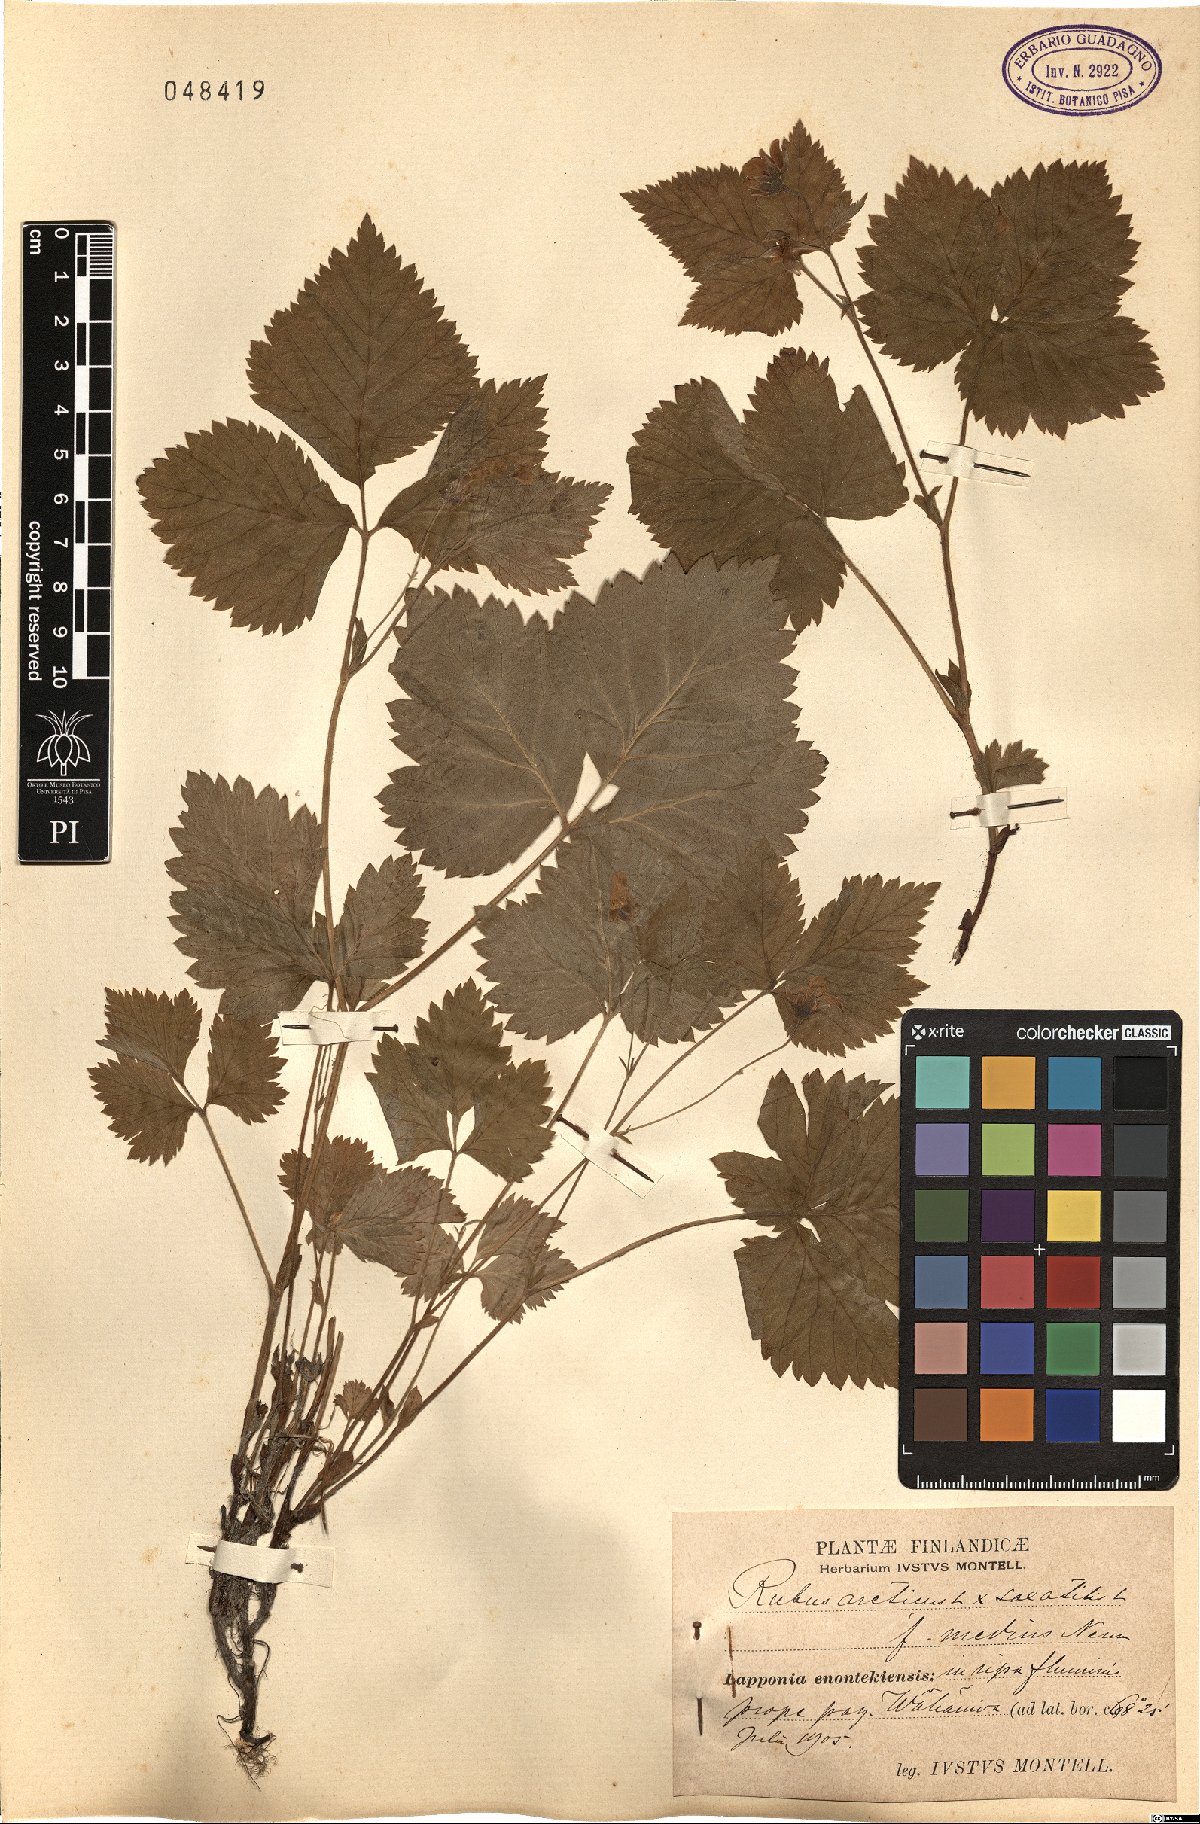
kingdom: Plantae
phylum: Tracheophyta
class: Magnoliopsida
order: Rosales
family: Rosaceae
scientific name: Rosaceae
